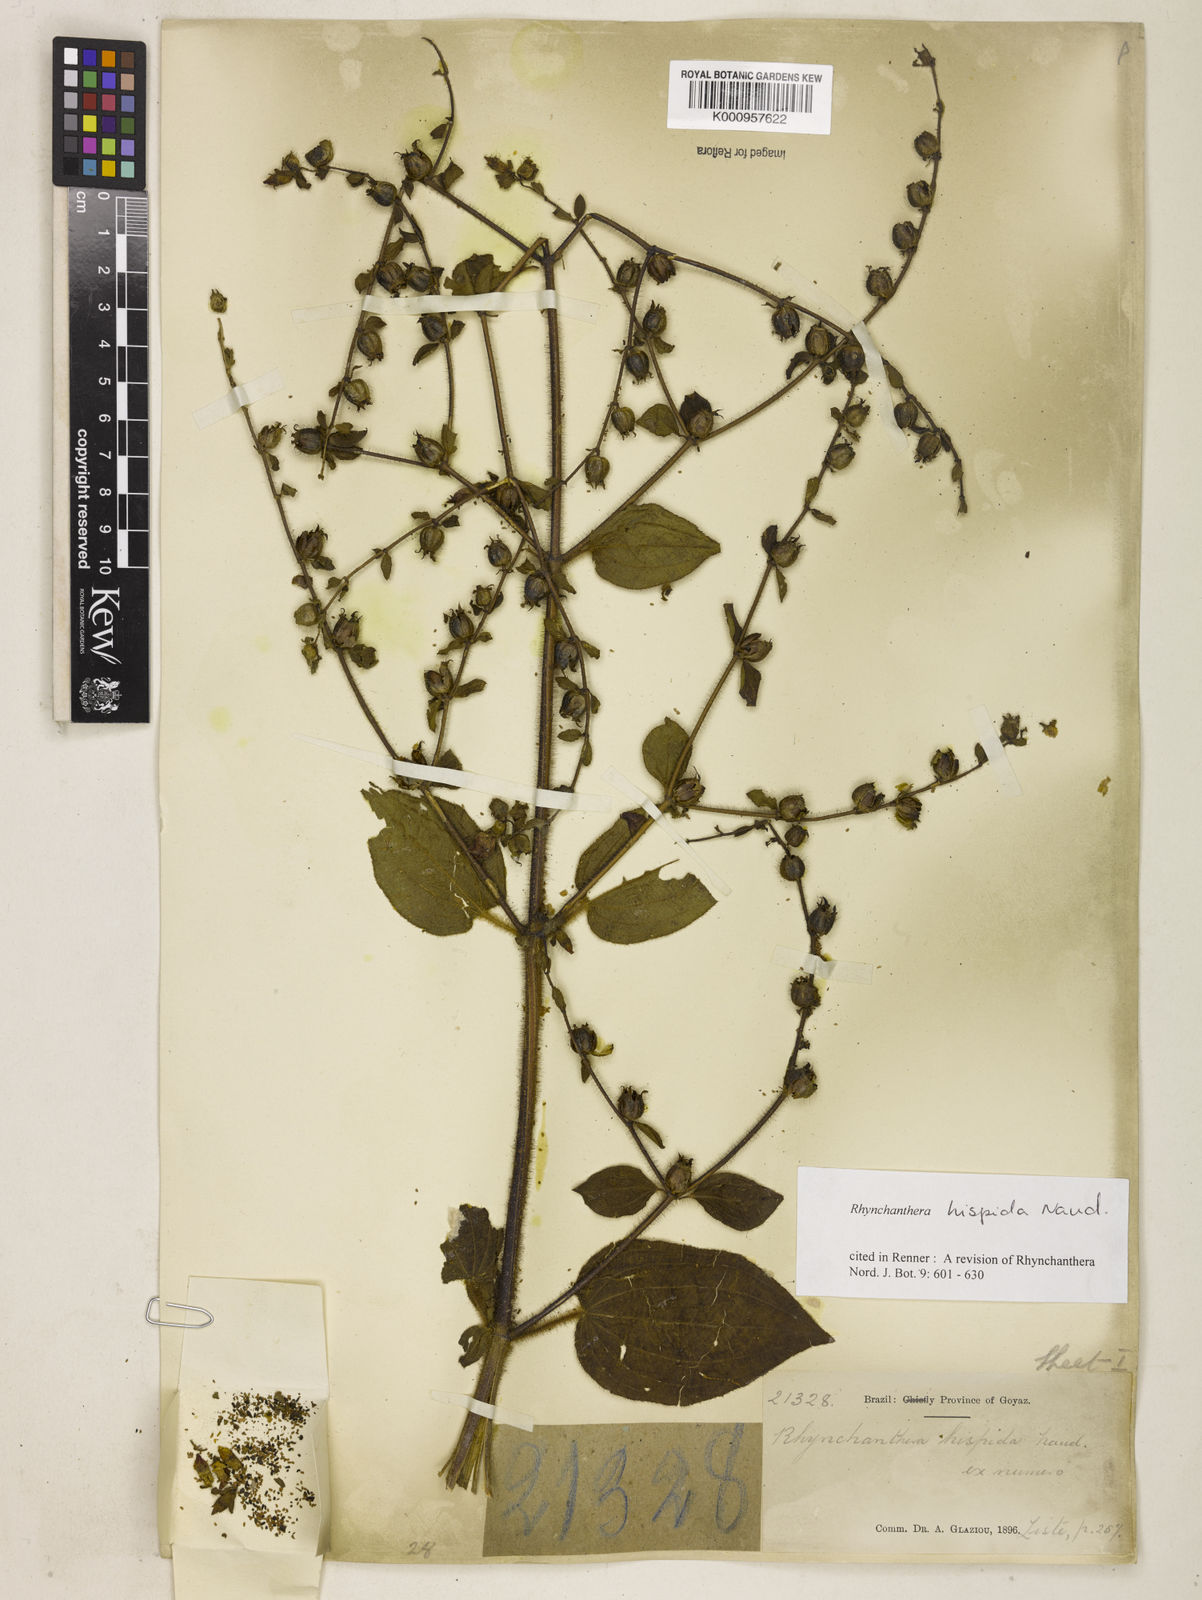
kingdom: Plantae
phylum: Tracheophyta
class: Magnoliopsida
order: Myrtales
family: Melastomataceae
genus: Rhynchanthera
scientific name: Rhynchanthera hispida
